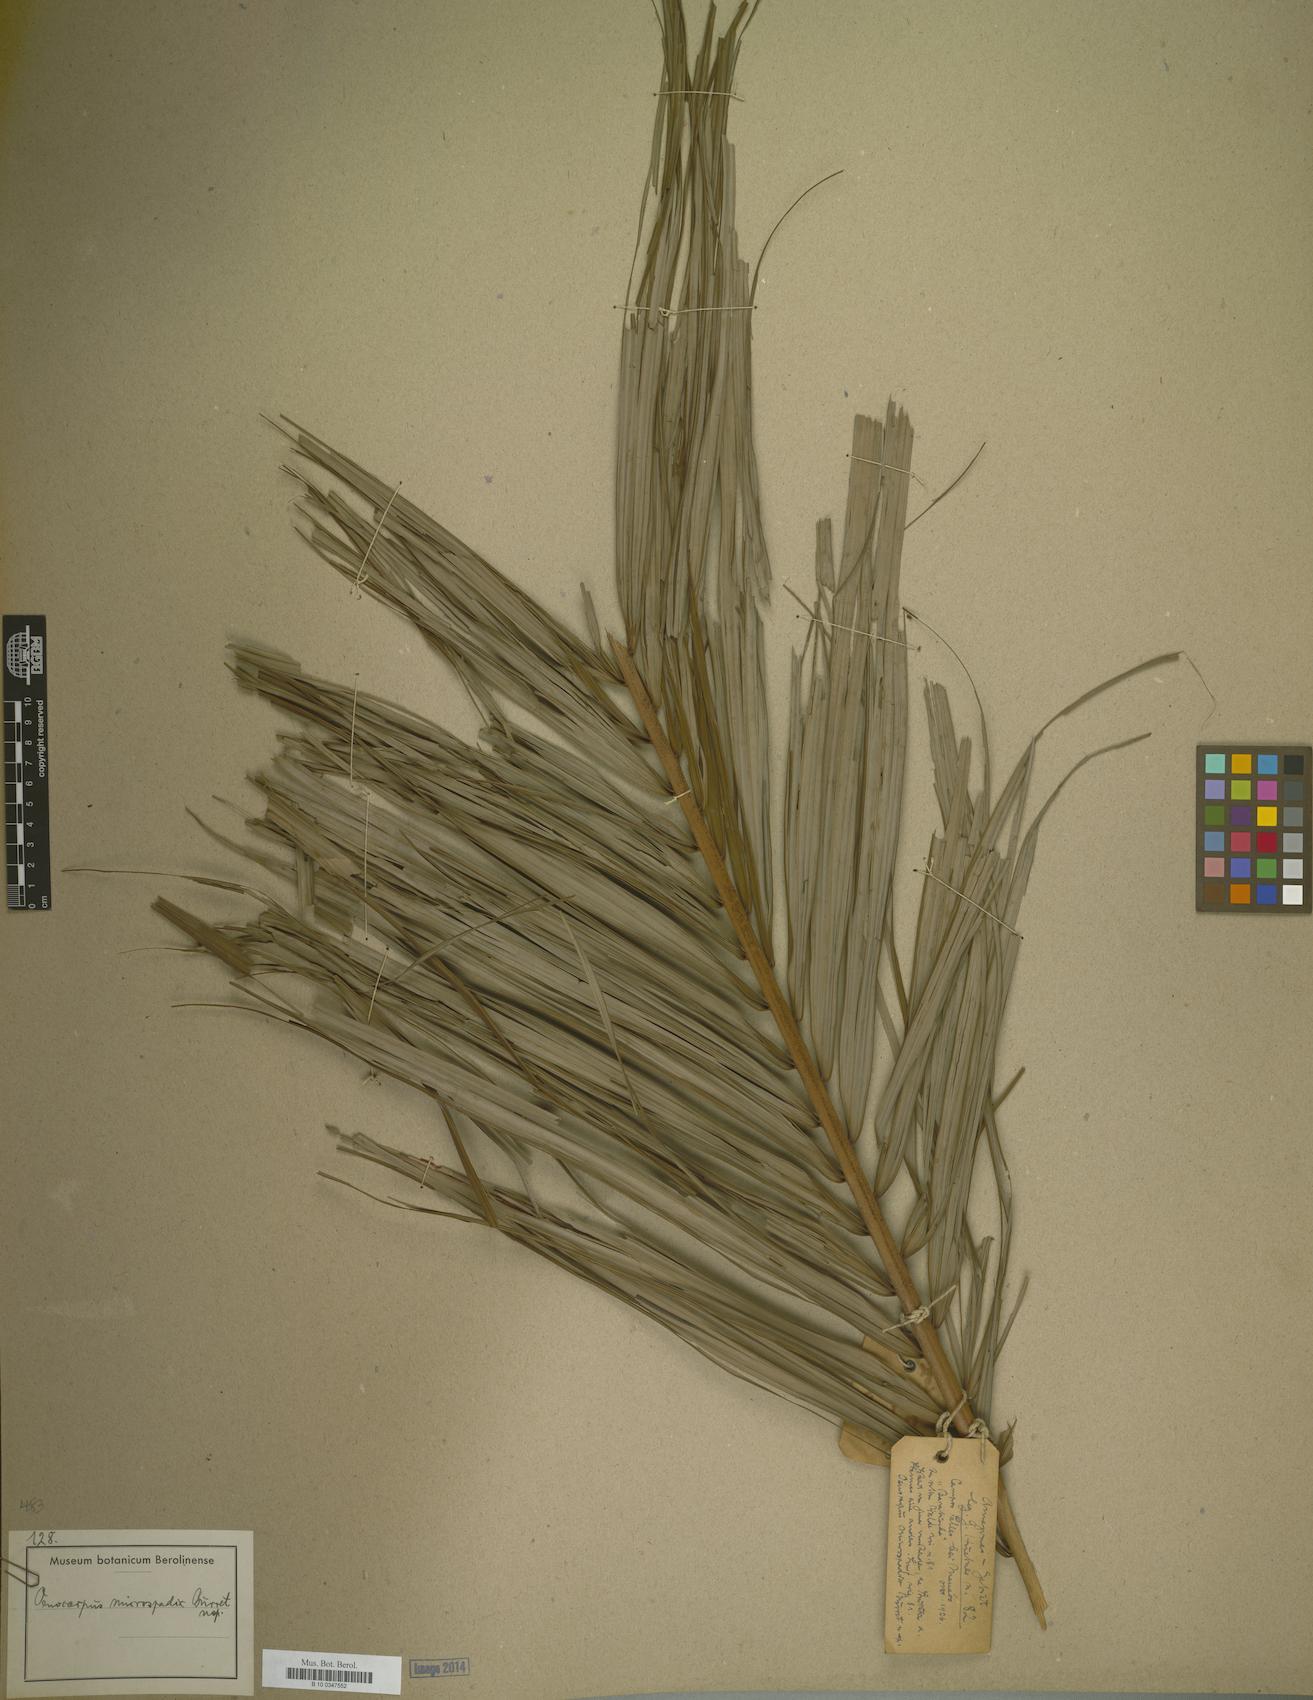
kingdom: Plantae
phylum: Tracheophyta
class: Liliopsida
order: Arecales
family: Arecaceae
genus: Oenocarpus
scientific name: Oenocarpus minor
